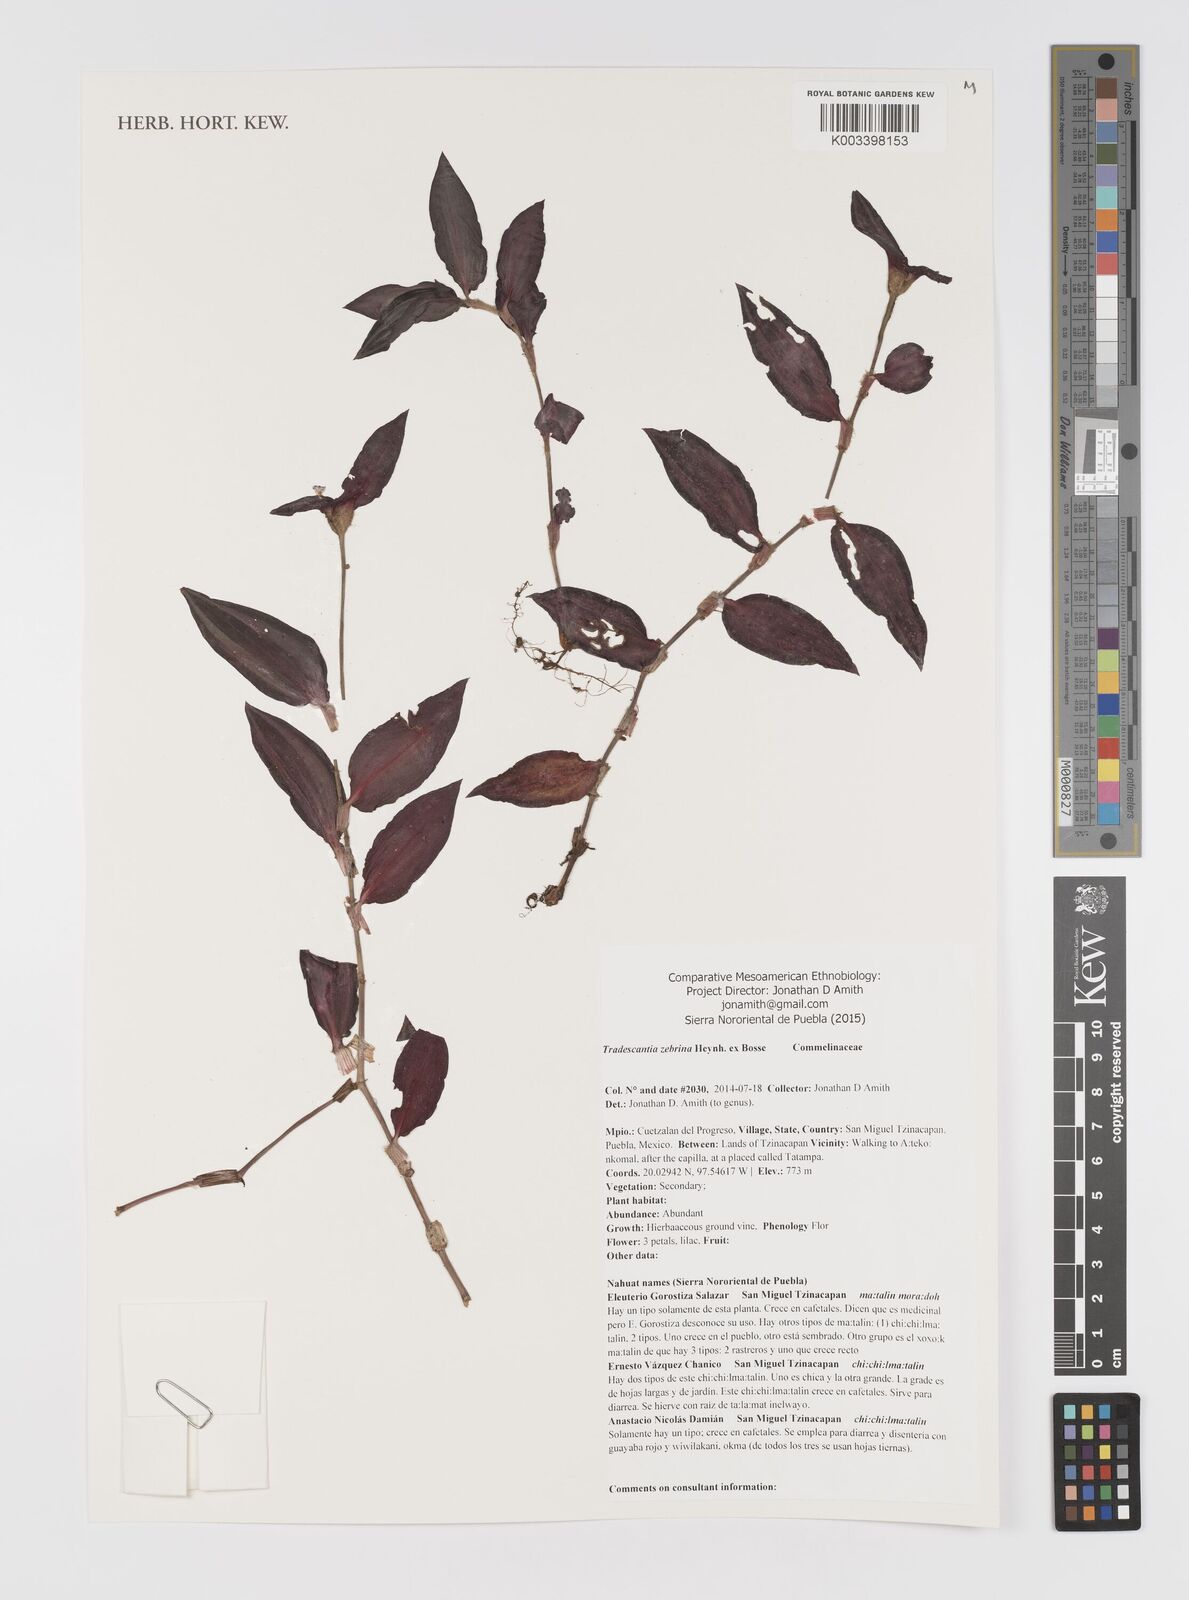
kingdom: Plantae
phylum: Tracheophyta
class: Liliopsida
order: Commelinales
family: Commelinaceae
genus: Tradescantia
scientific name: Tradescantia zebrina
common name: Inchplant
